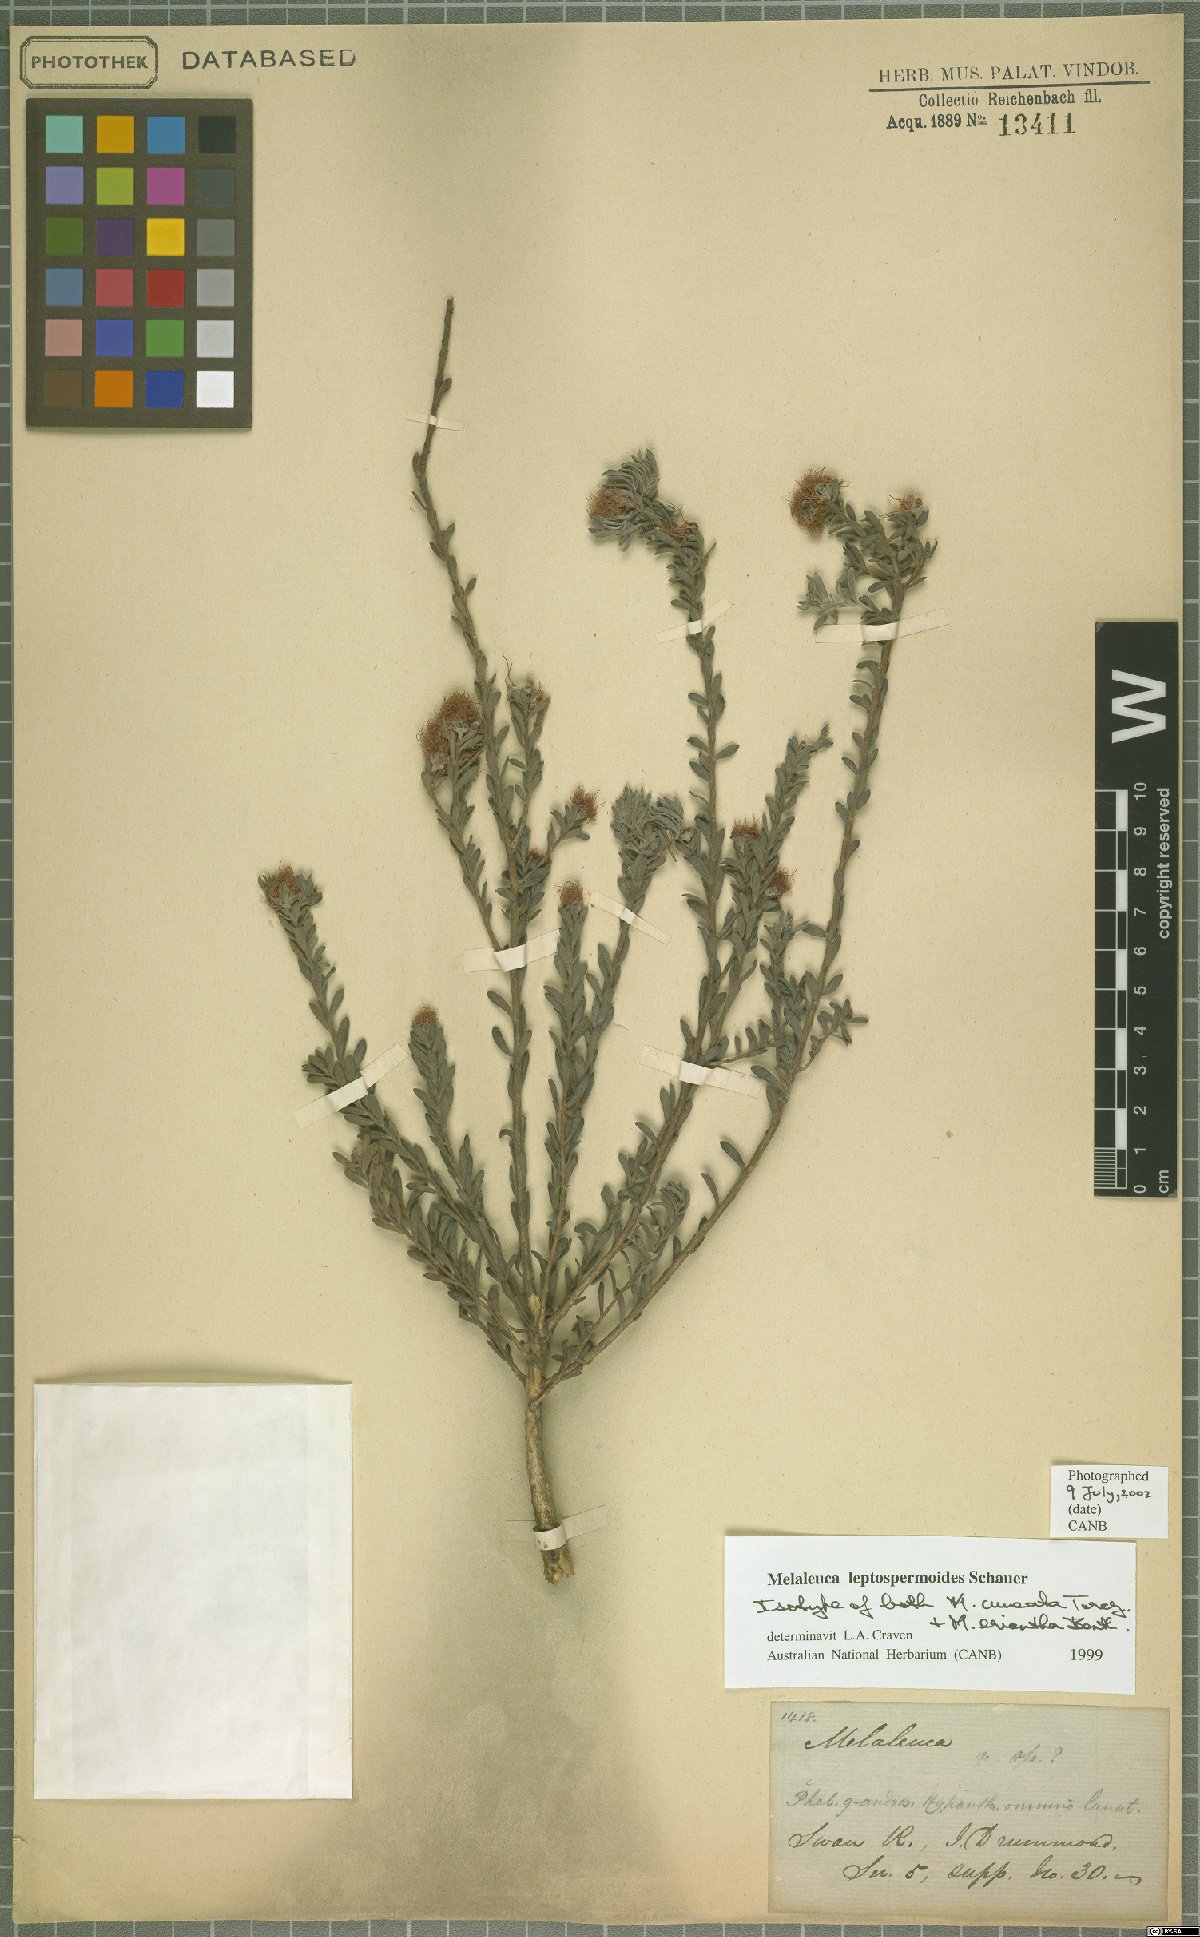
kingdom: Plantae
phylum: Tracheophyta
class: Magnoliopsida
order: Myrtales
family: Myrtaceae
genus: Melaleuca
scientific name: Melaleuca leptospermoides
